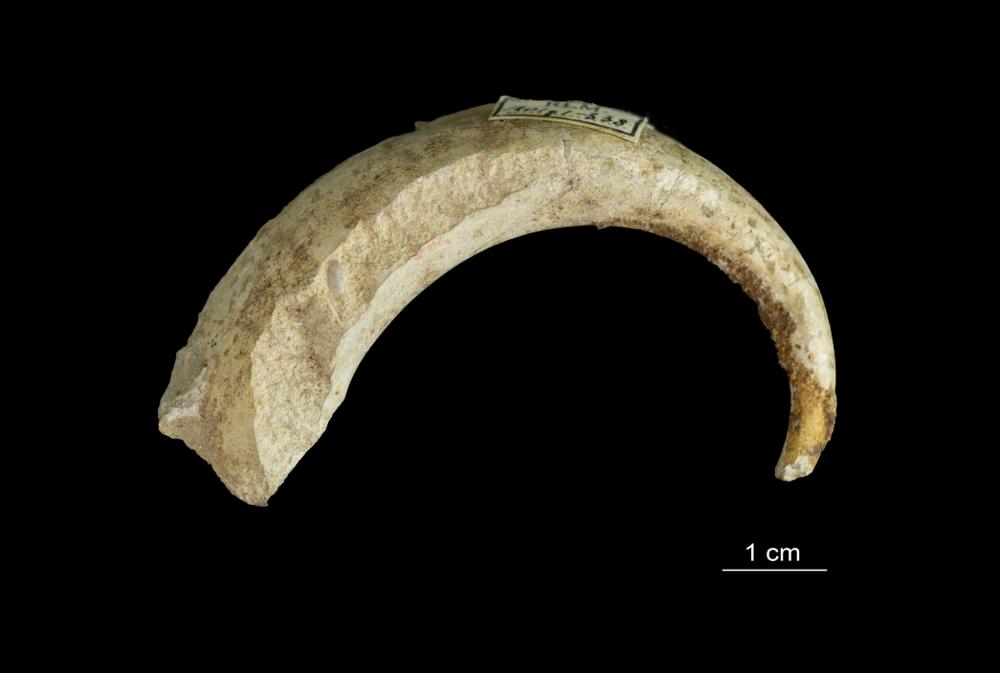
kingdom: Animalia
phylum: Mollusca
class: Gastropoda
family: Euomphalidae
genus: Ecculiomphalus
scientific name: Ecculiomphalus Eccyliopterus centrifugus
